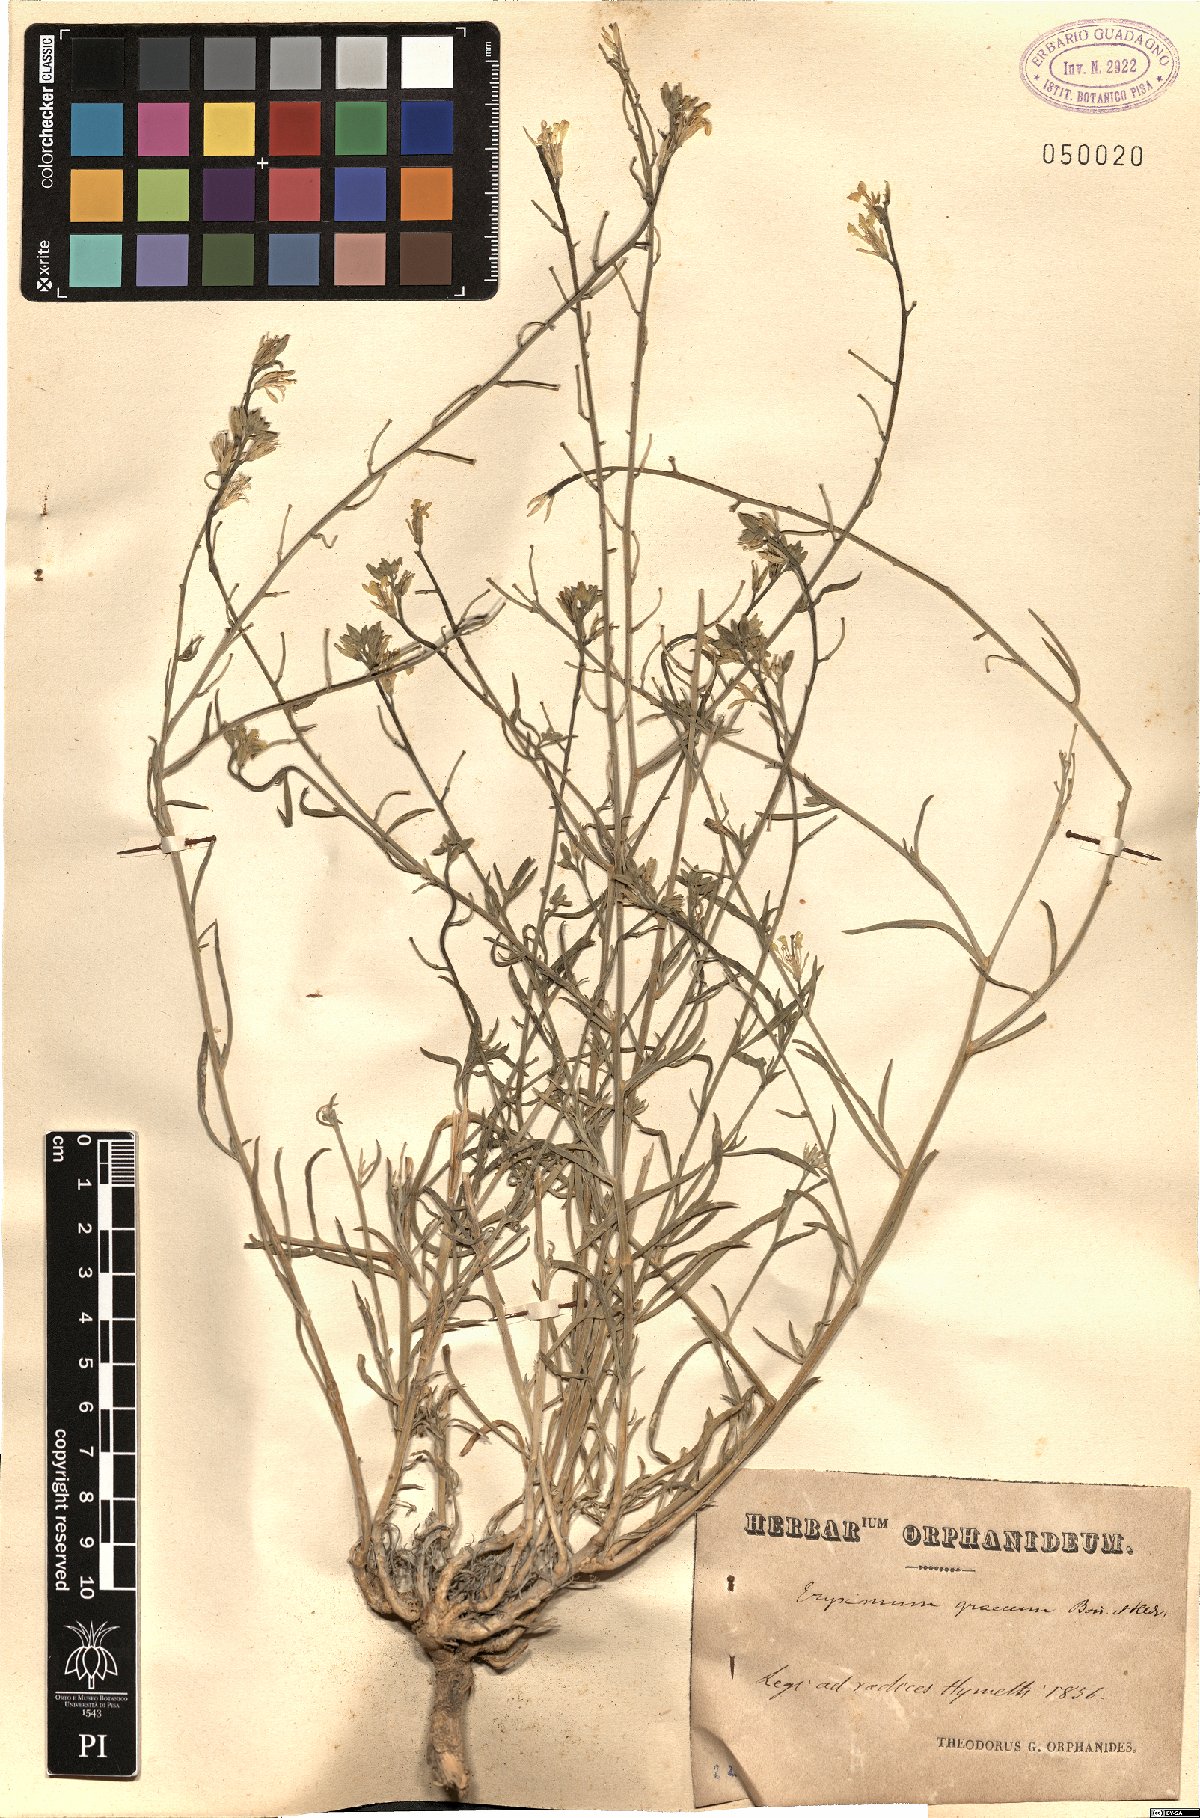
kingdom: Plantae
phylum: Tracheophyta
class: Magnoliopsida
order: Brassicales
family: Brassicaceae
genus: Erysimum
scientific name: Erysimum graecum
